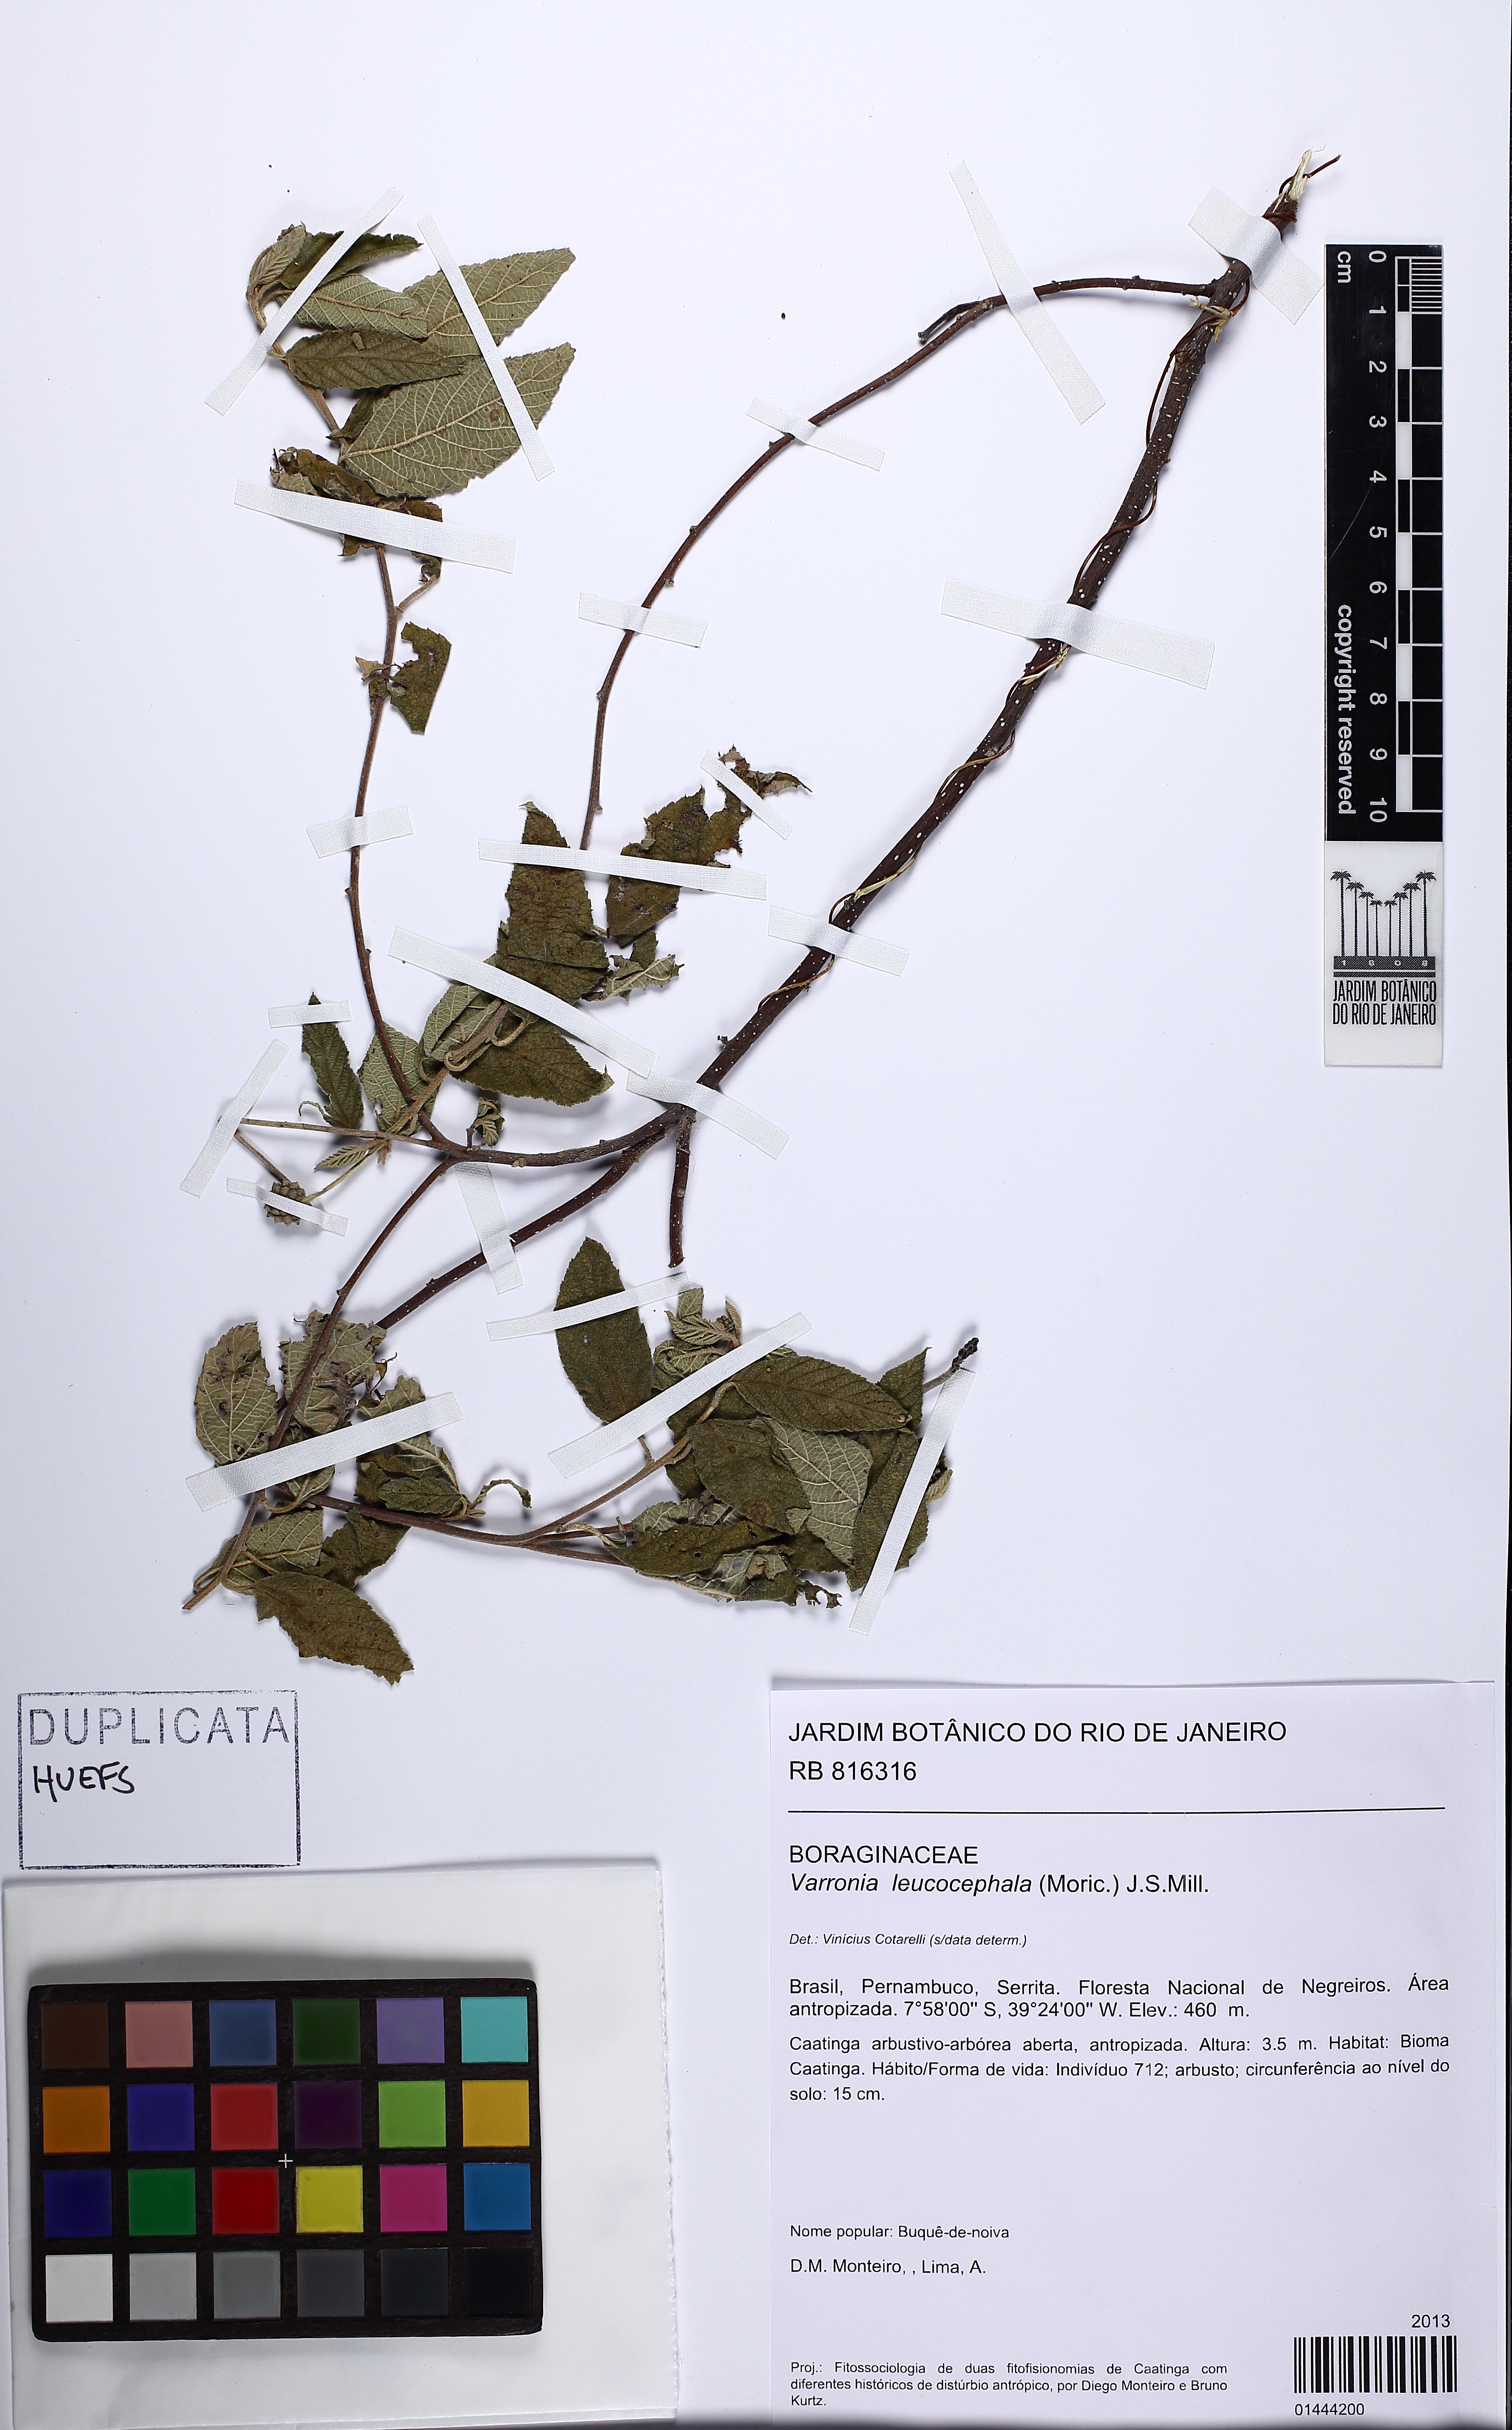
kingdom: Plantae
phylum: Tracheophyta
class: Magnoliopsida
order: Boraginales
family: Cordiaceae
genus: Varronia
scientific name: Varronia leucocephala
